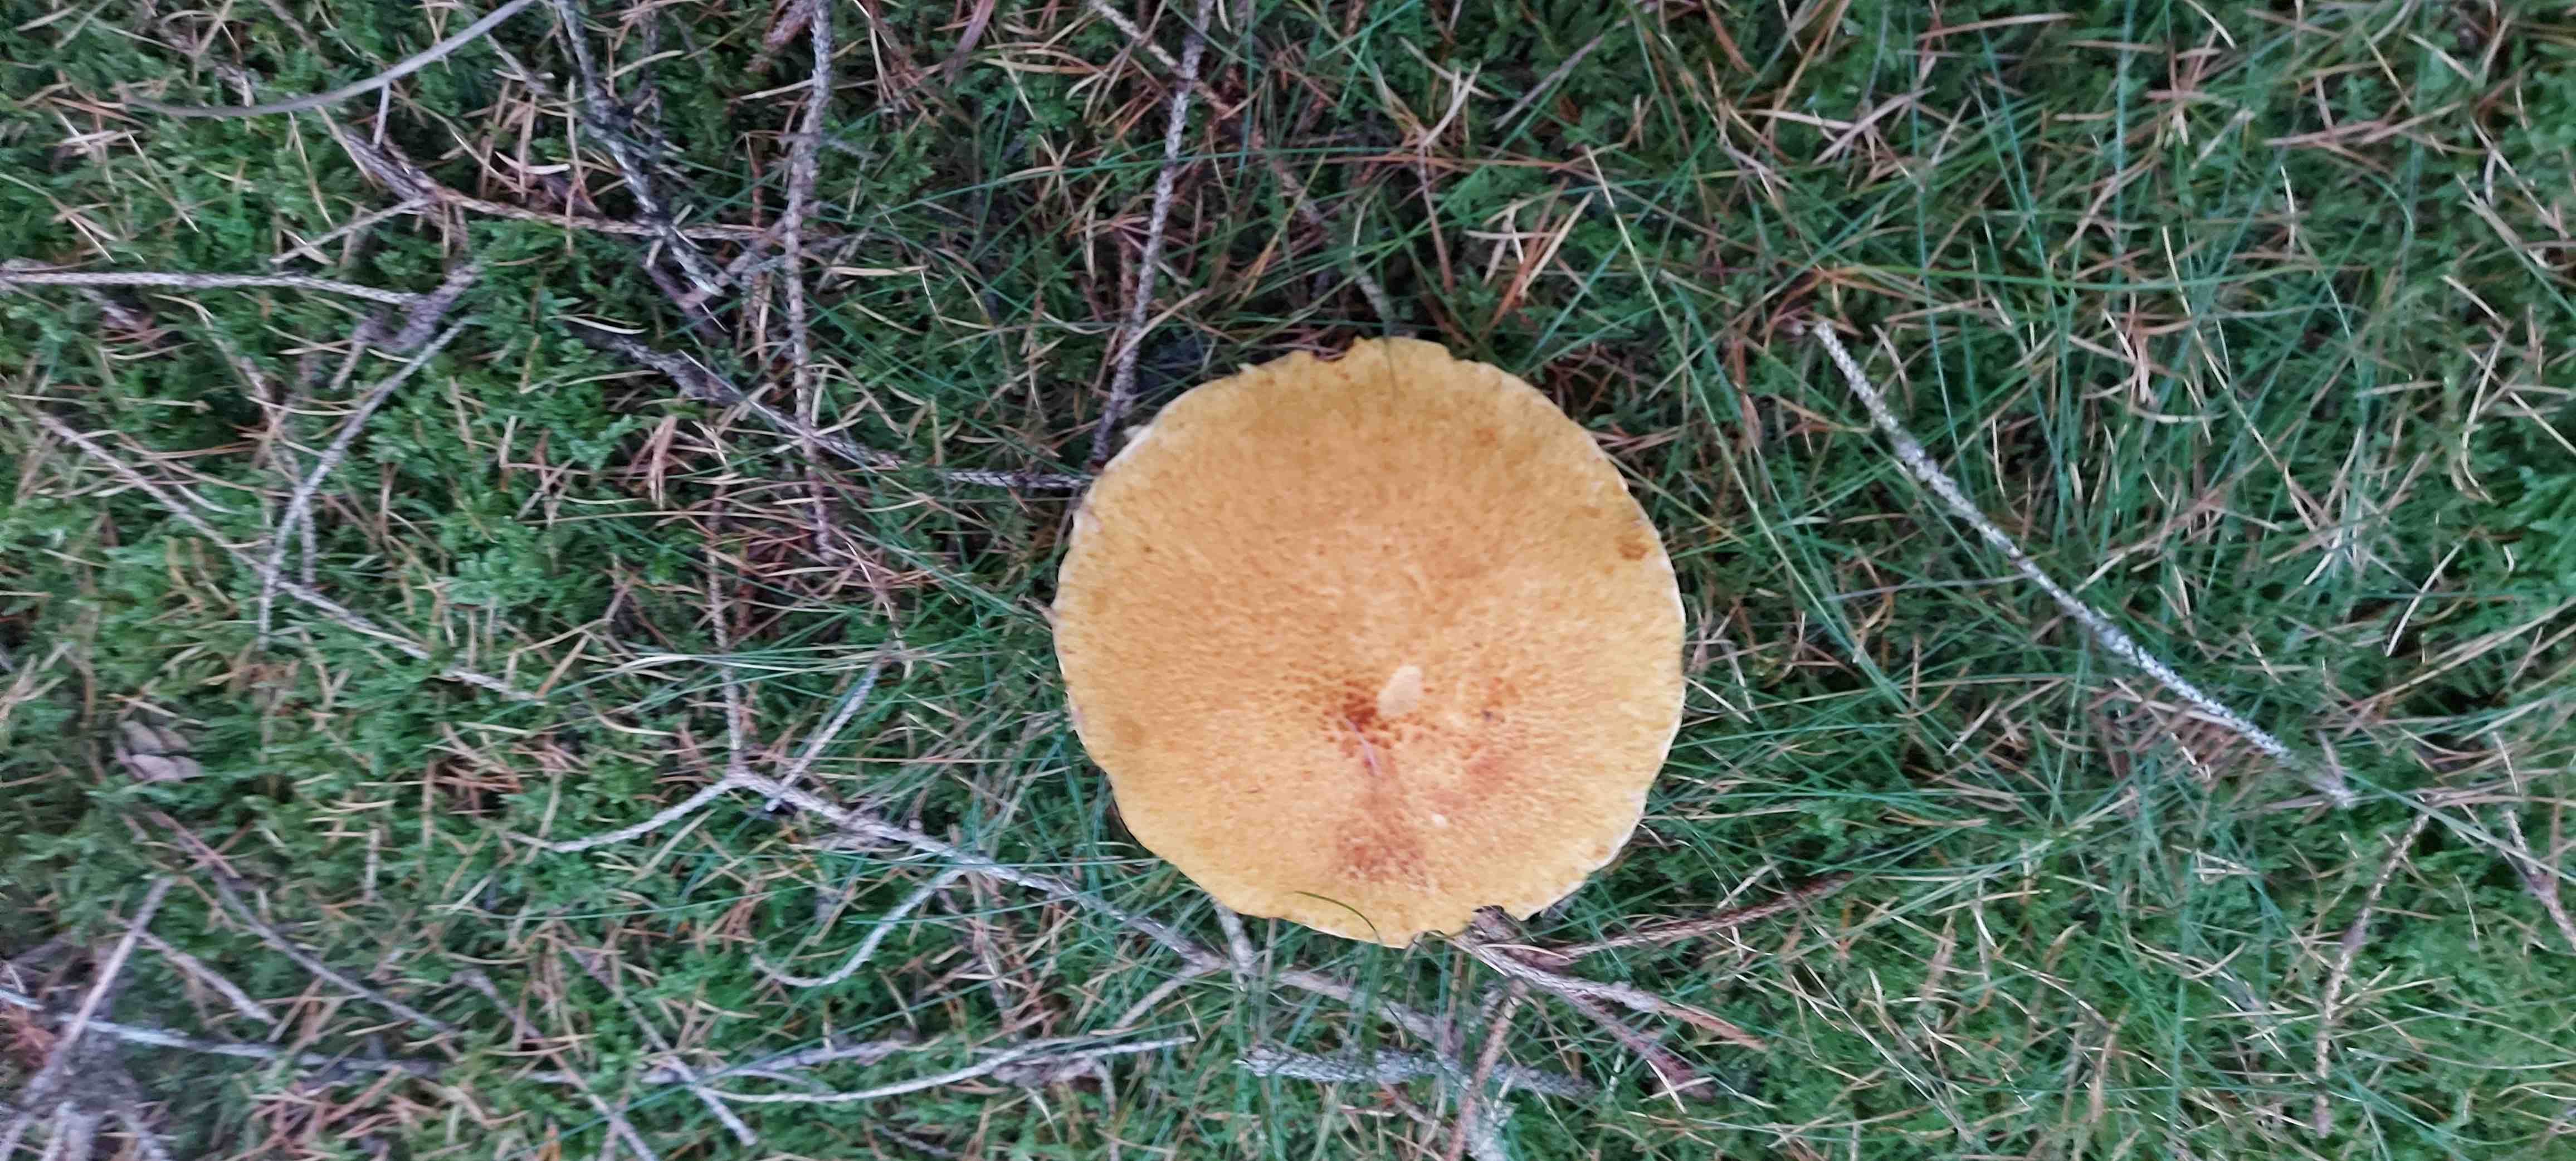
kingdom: Fungi
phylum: Basidiomycota
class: Agaricomycetes
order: Boletales
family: Suillaceae
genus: Suillus
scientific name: Suillus cavipes
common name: hulstokket slimrørhat
